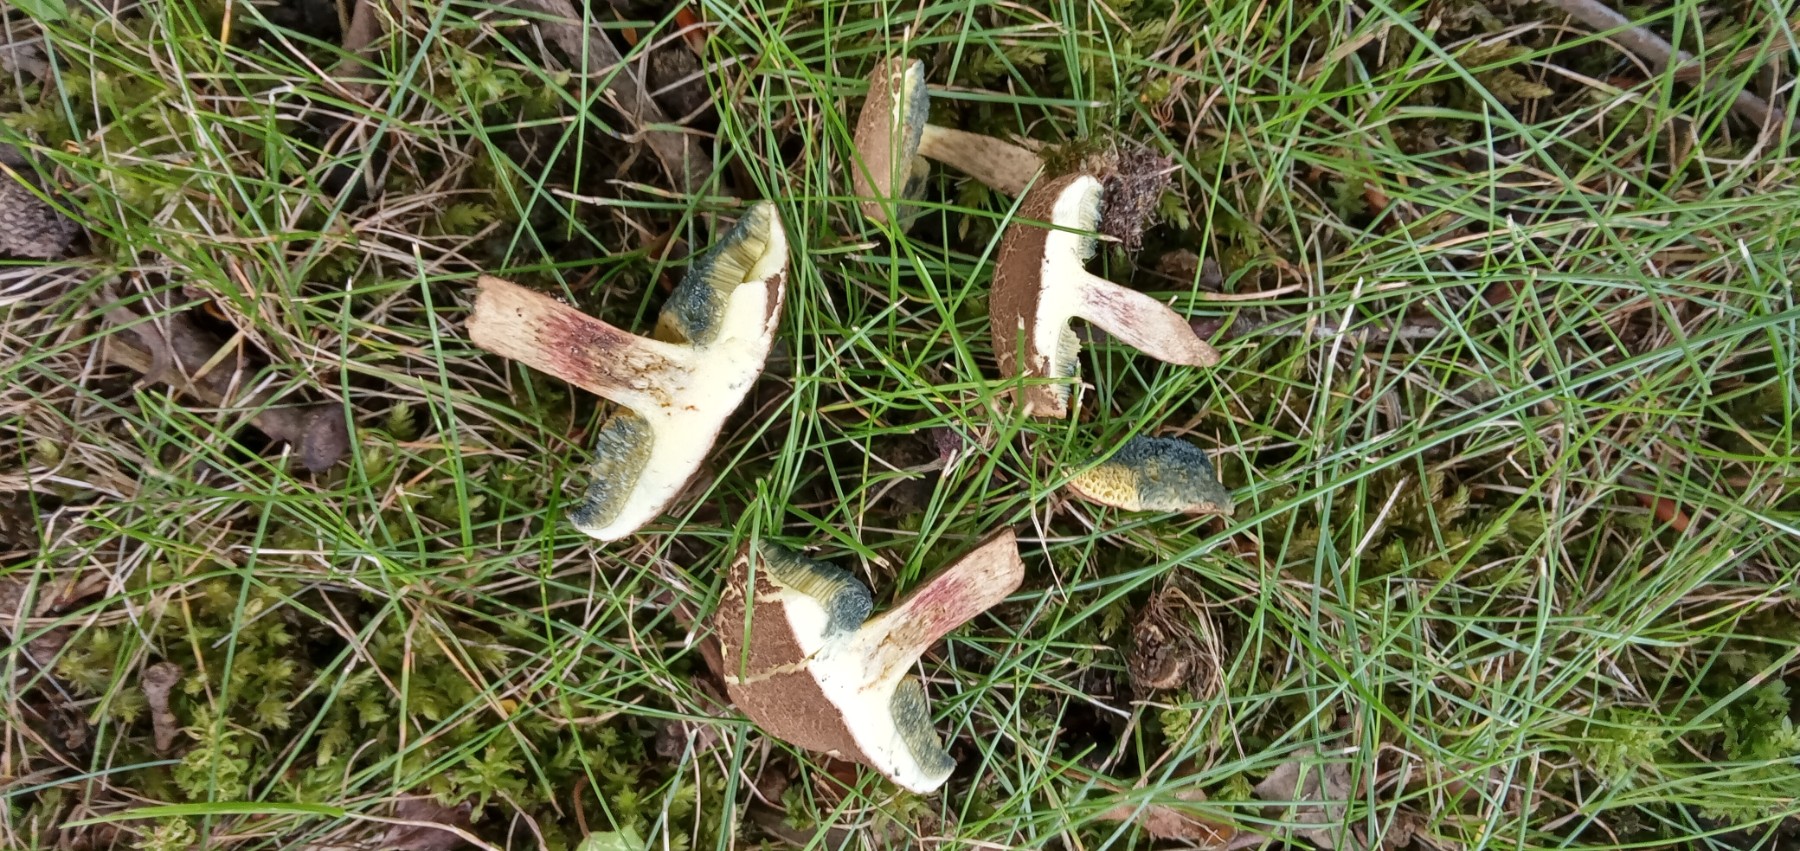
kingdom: Fungi
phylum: Basidiomycota
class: Agaricomycetes
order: Boletales
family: Boletaceae
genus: Xerocomellus
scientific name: Xerocomellus porosporus
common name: hvidsprukken rørhat
